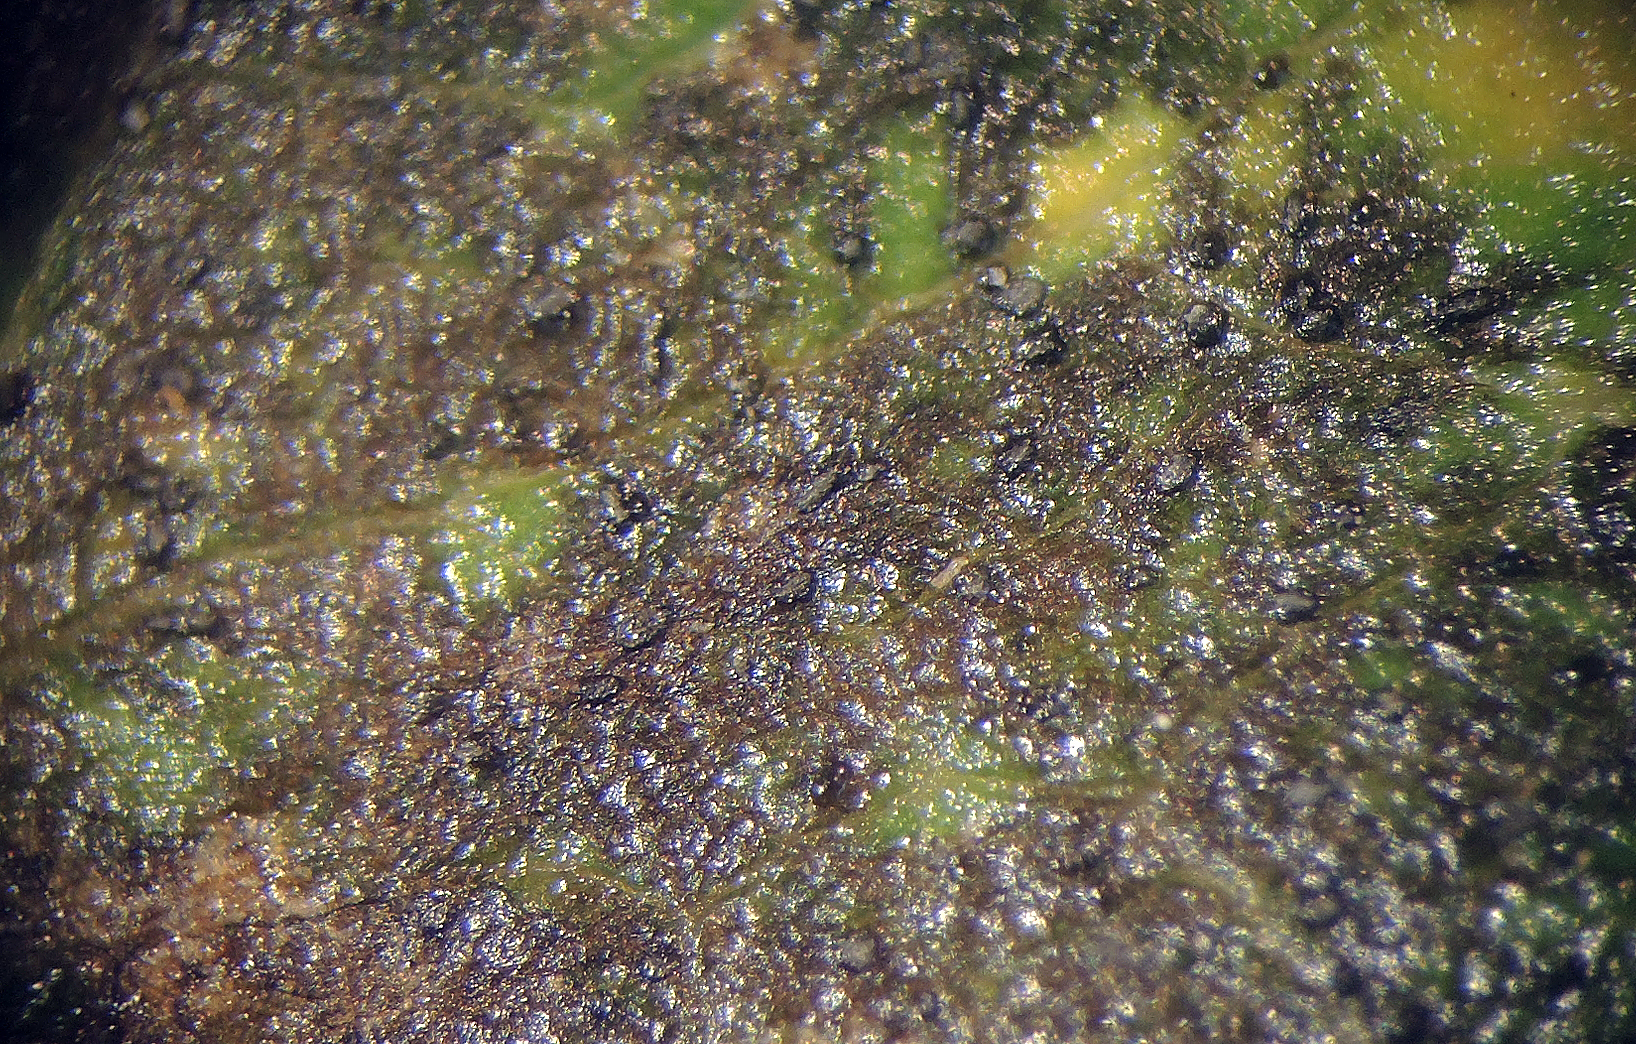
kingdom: Fungi
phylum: Ascomycota
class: Leotiomycetes
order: Helotiales
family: Drepanopezizaceae
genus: Diplocarpon
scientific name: Diplocarpon rosae
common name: Rose black-spot
